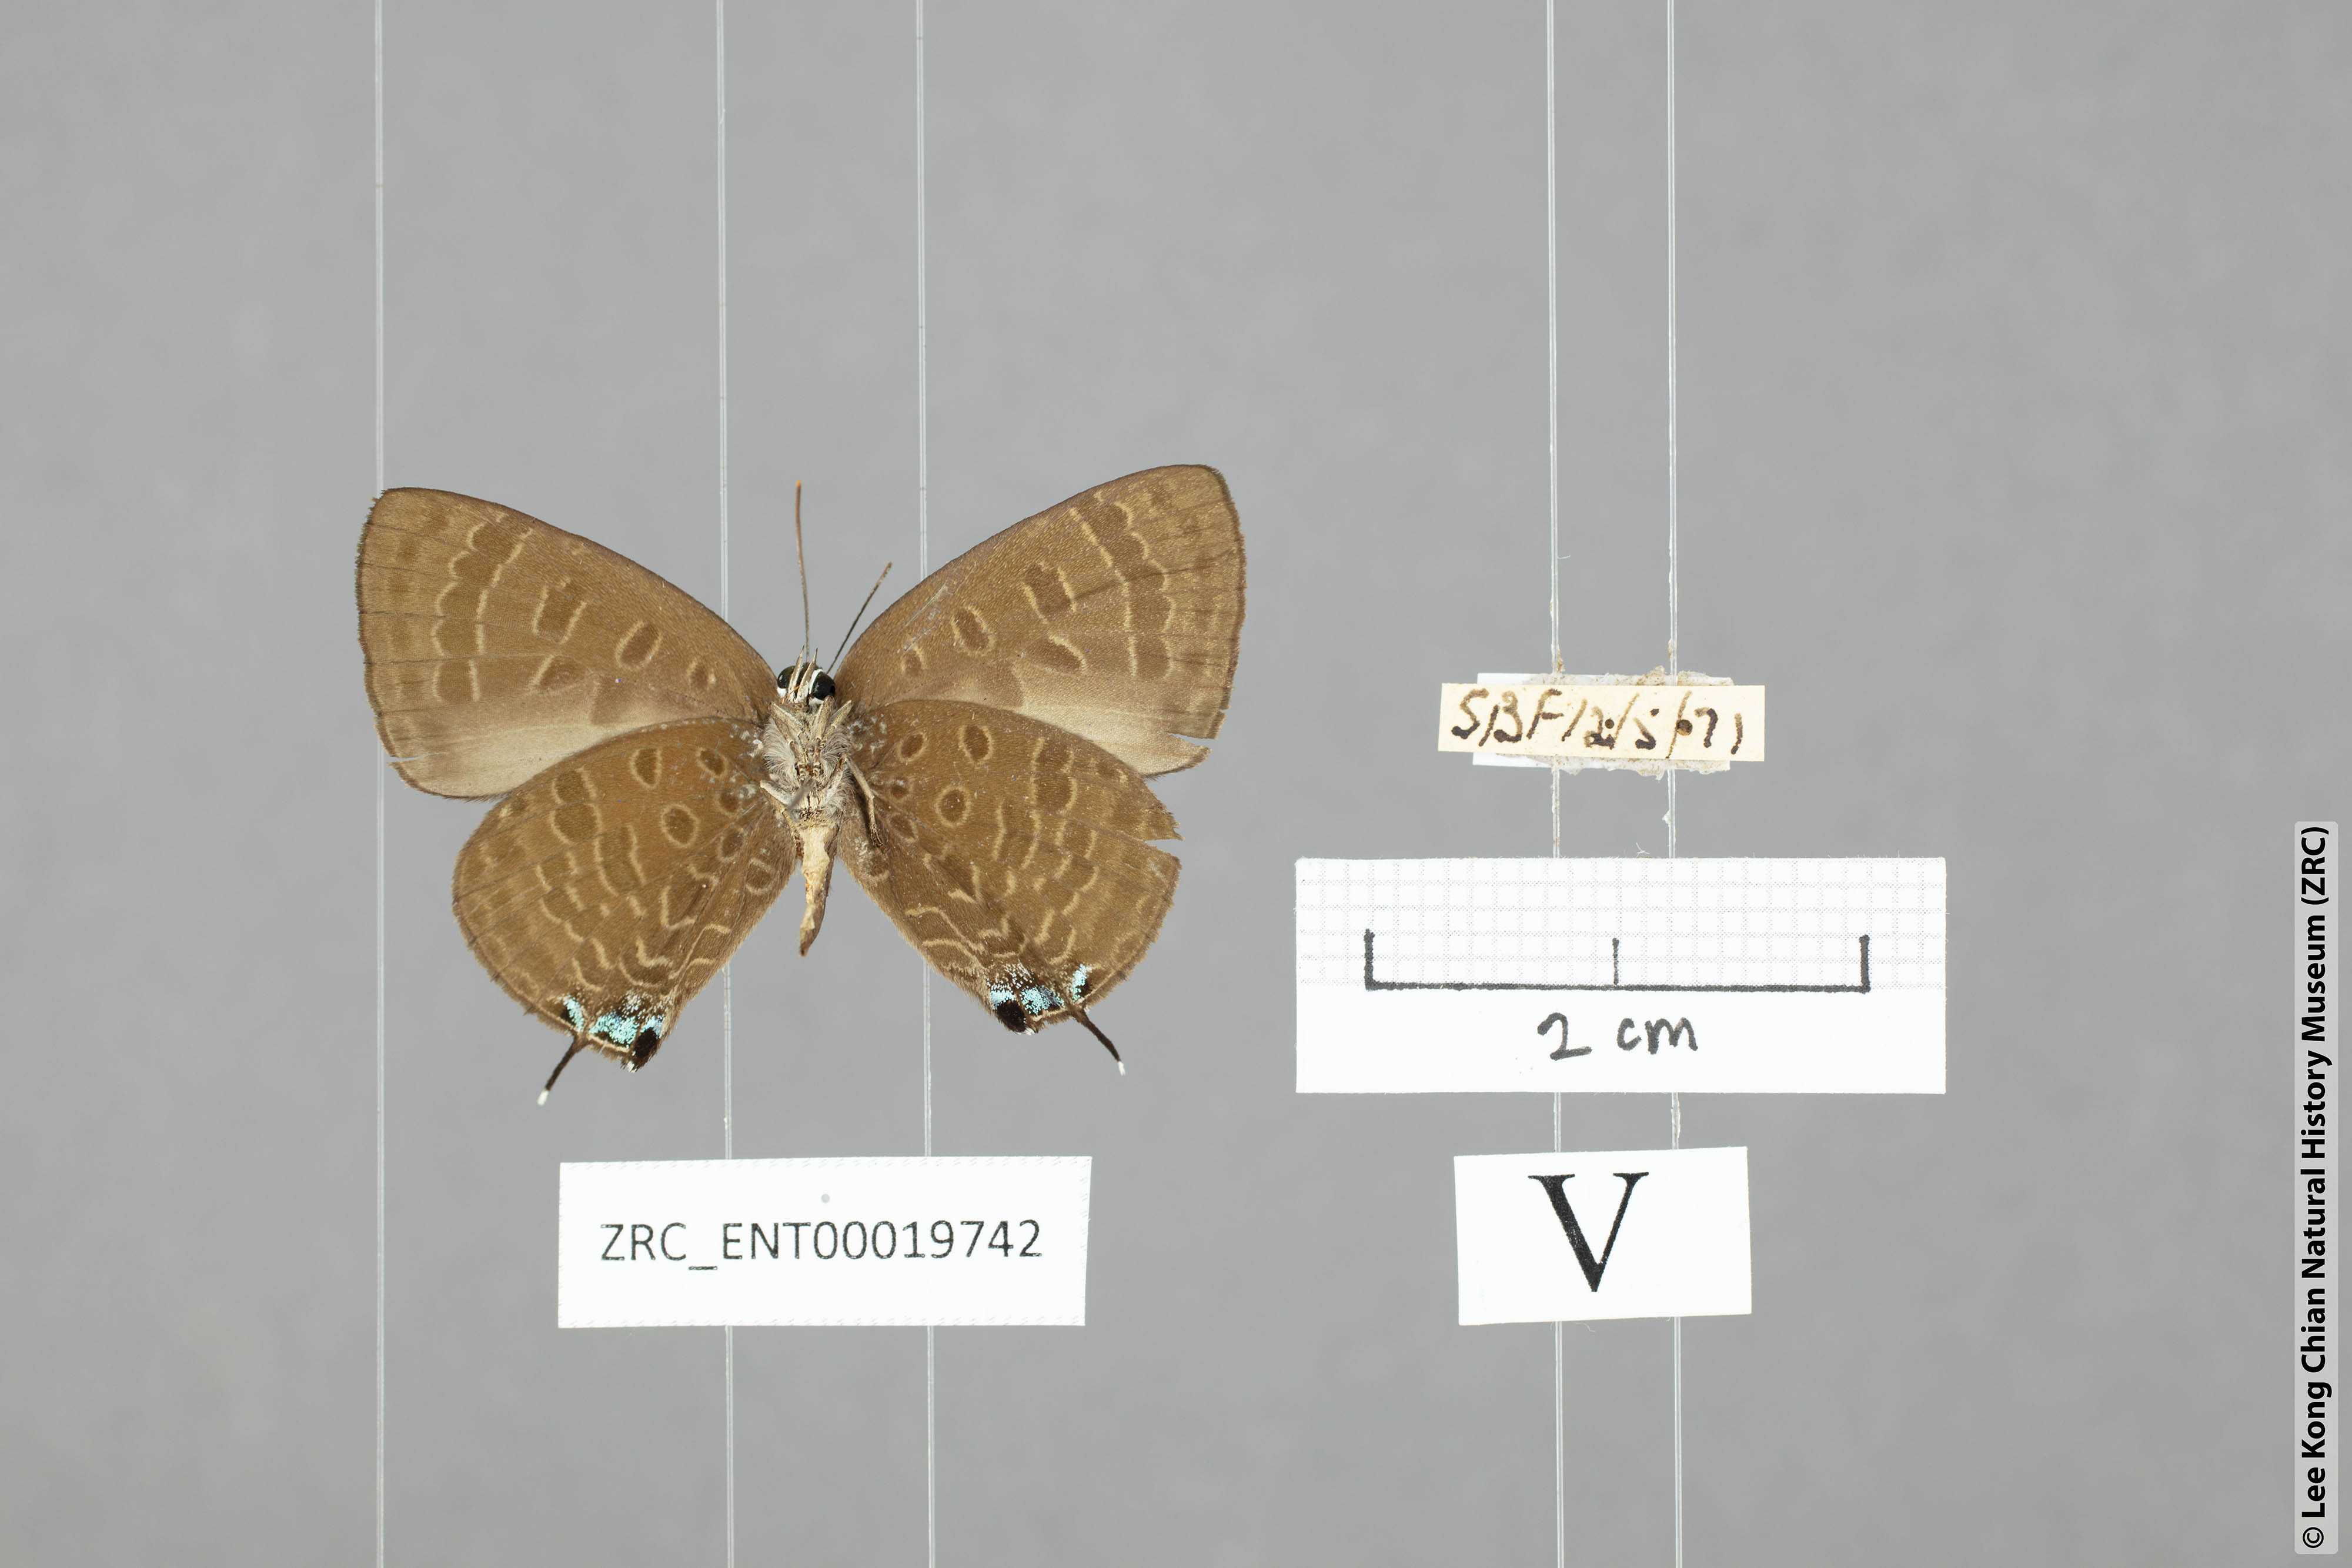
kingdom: Animalia
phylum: Arthropoda
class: Insecta
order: Lepidoptera
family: Lycaenidae
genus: Arhopala
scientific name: Arhopala normani
